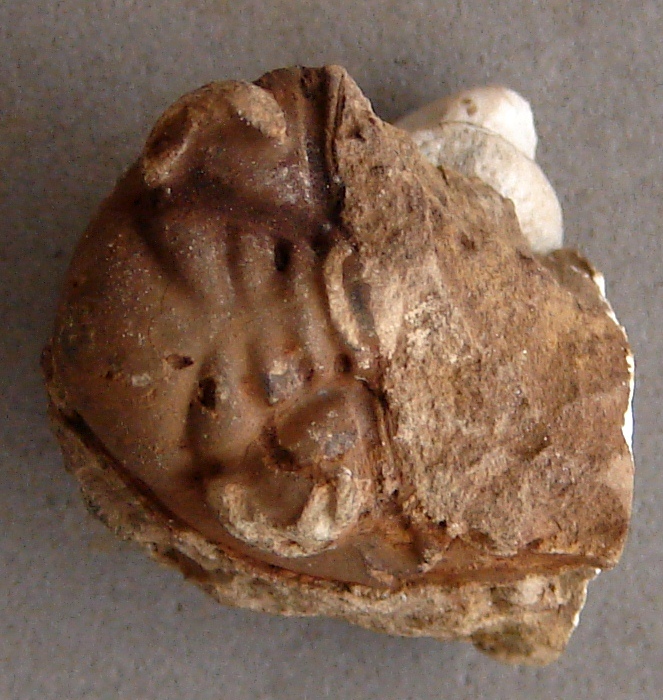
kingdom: Animalia
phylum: Arthropoda
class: Trilobita
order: Phacopida
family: Acastidae
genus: Kayserops
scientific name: Kayserops daleidensis
